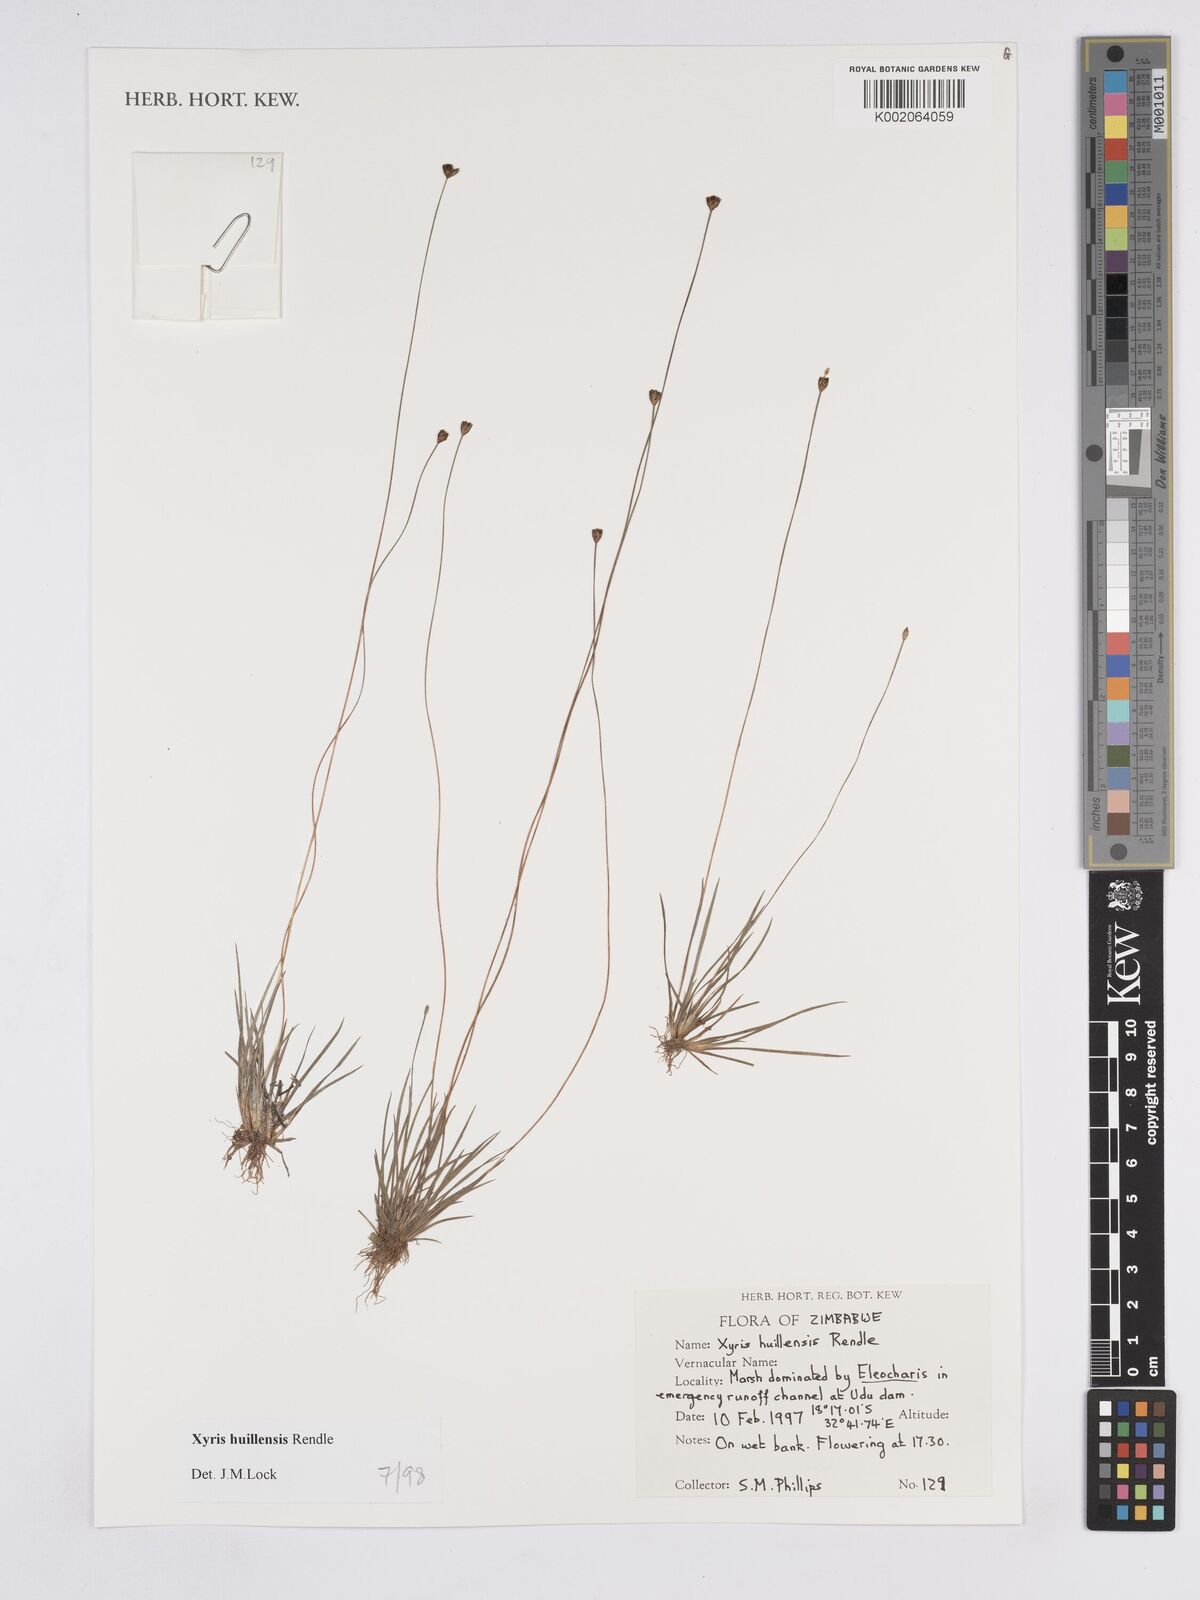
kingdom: Plantae
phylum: Tracheophyta
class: Liliopsida
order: Poales
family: Xyridaceae
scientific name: Xyridaceae
